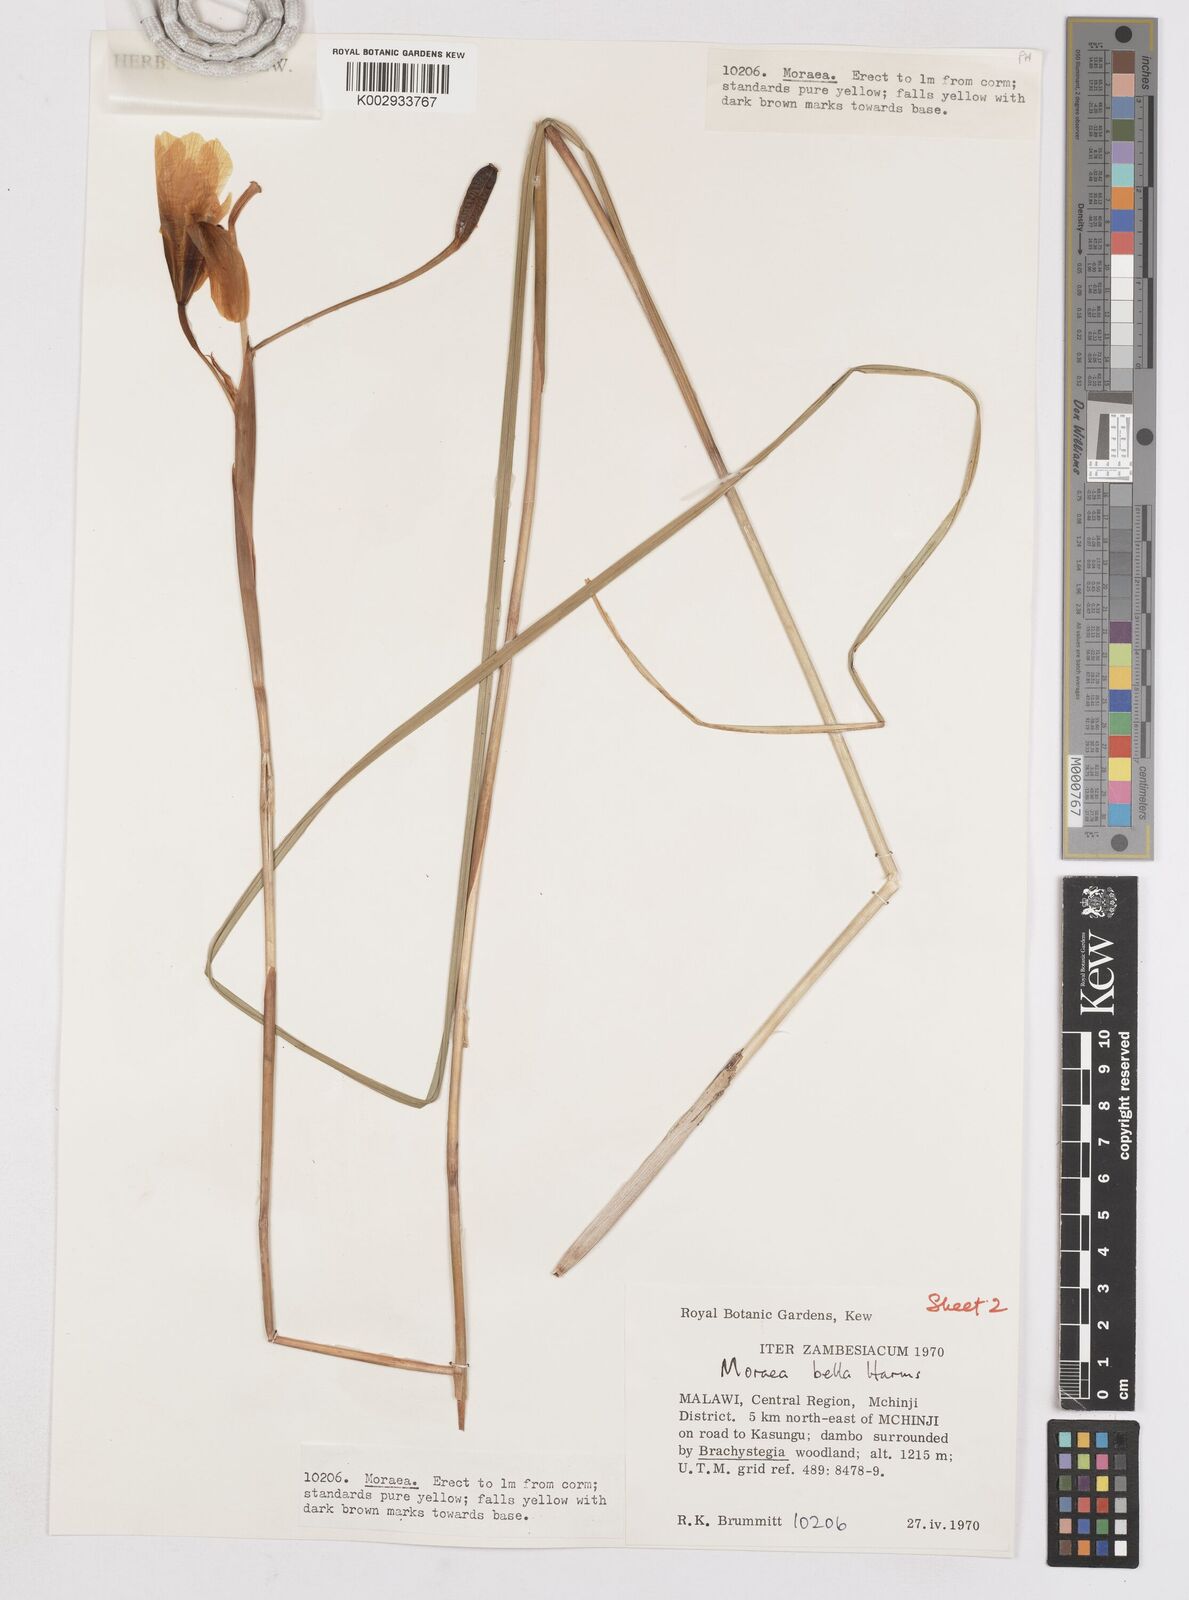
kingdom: Plantae
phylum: Tracheophyta
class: Liliopsida
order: Asparagales
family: Iridaceae
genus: Moraea
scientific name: Moraea bella
